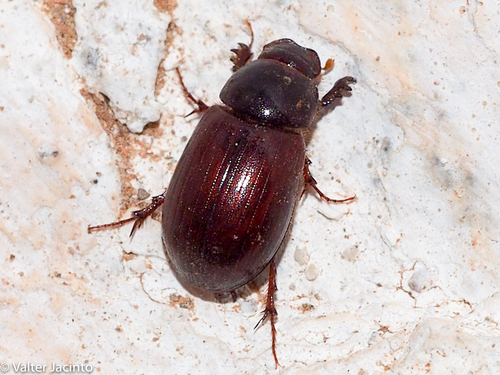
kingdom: Animalia
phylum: Arthropoda
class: Insecta
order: Coleoptera
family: Scarabaeidae
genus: Anomius
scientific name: Anomius castaneus
